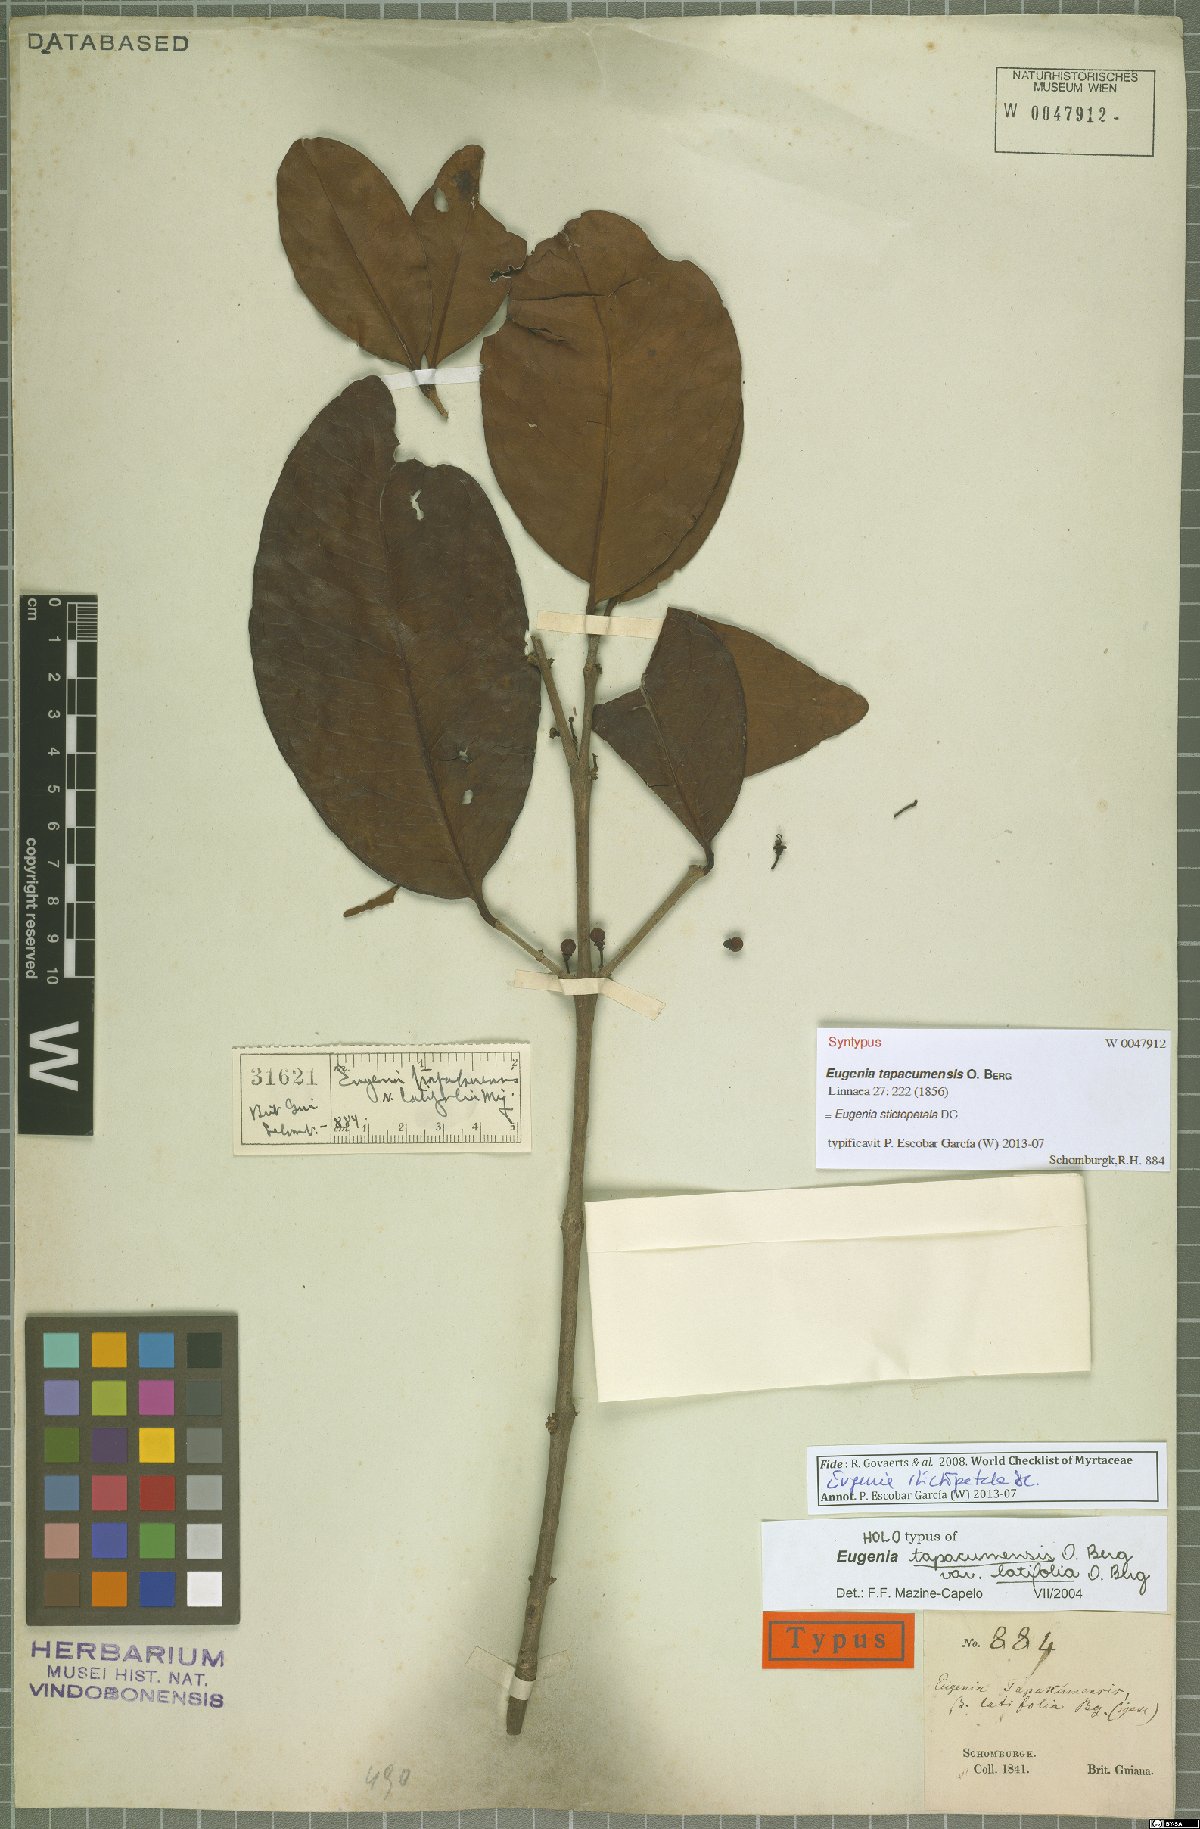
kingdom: Plantae
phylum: Tracheophyta
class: Magnoliopsida
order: Myrtales
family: Myrtaceae
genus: Eugenia
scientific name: Eugenia stictopetala
